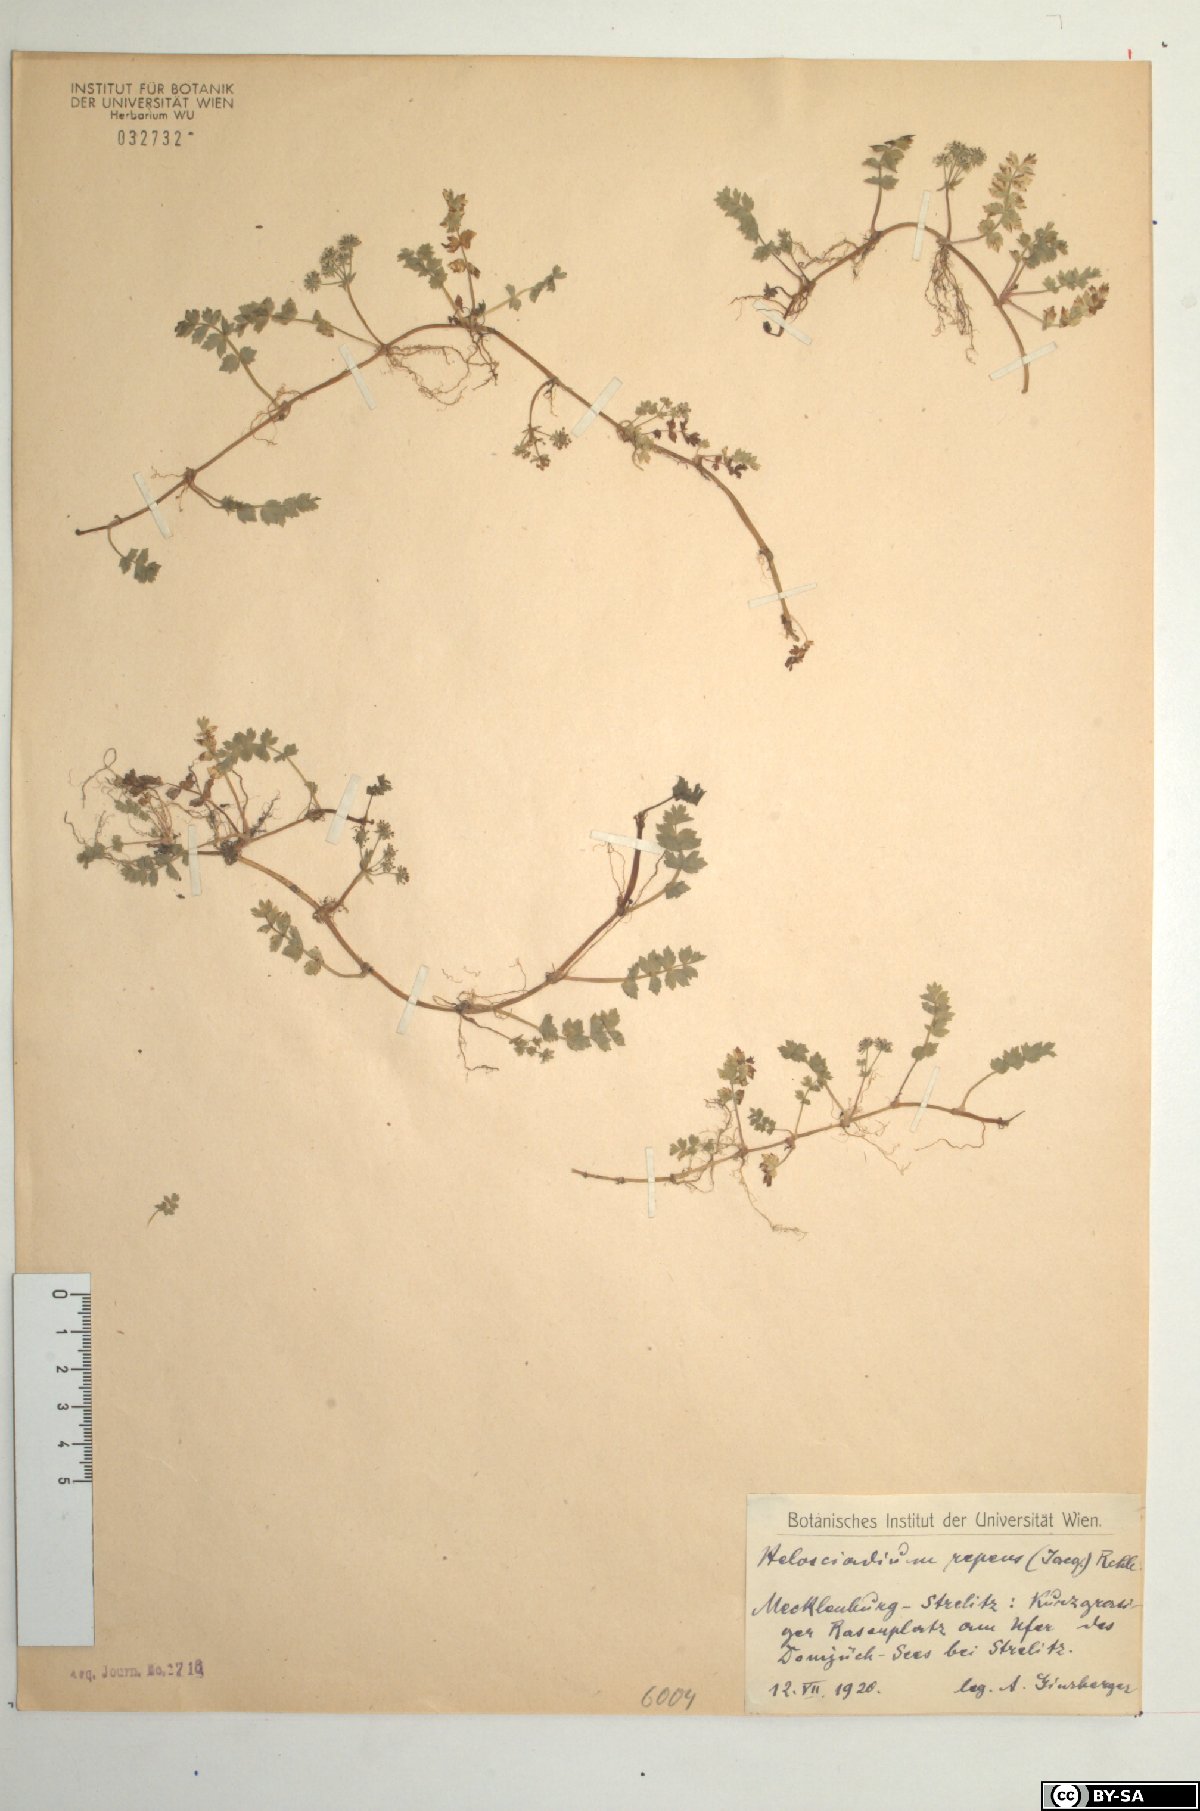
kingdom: Plantae
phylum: Tracheophyta
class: Magnoliopsida
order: Apiales
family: Apiaceae
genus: Helosciadium
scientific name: Helosciadium repens
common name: Creeping marshwort
